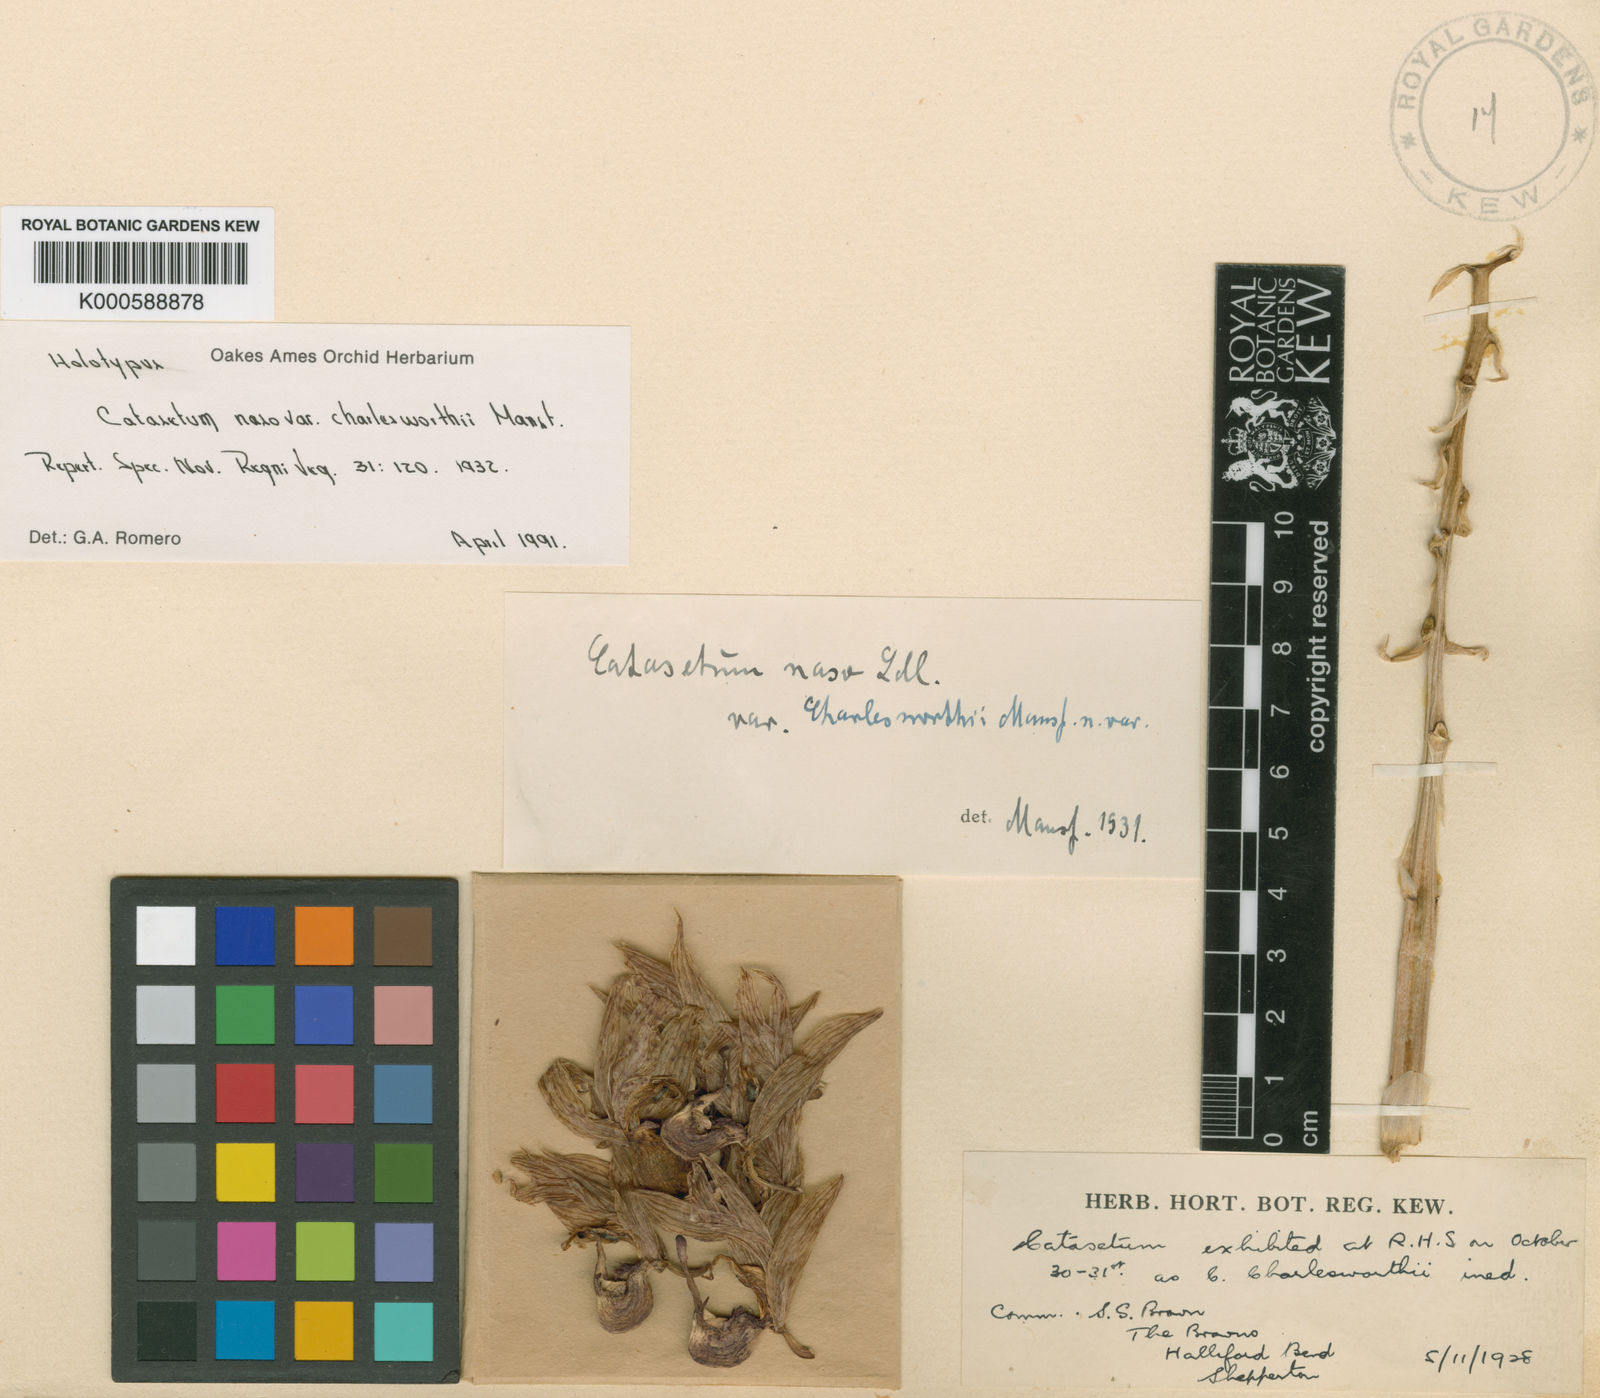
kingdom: Plantae
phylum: Tracheophyta
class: Liliopsida
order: Asparagales
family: Orchidaceae
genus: Catasetum
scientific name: Catasetum charlesworthii
